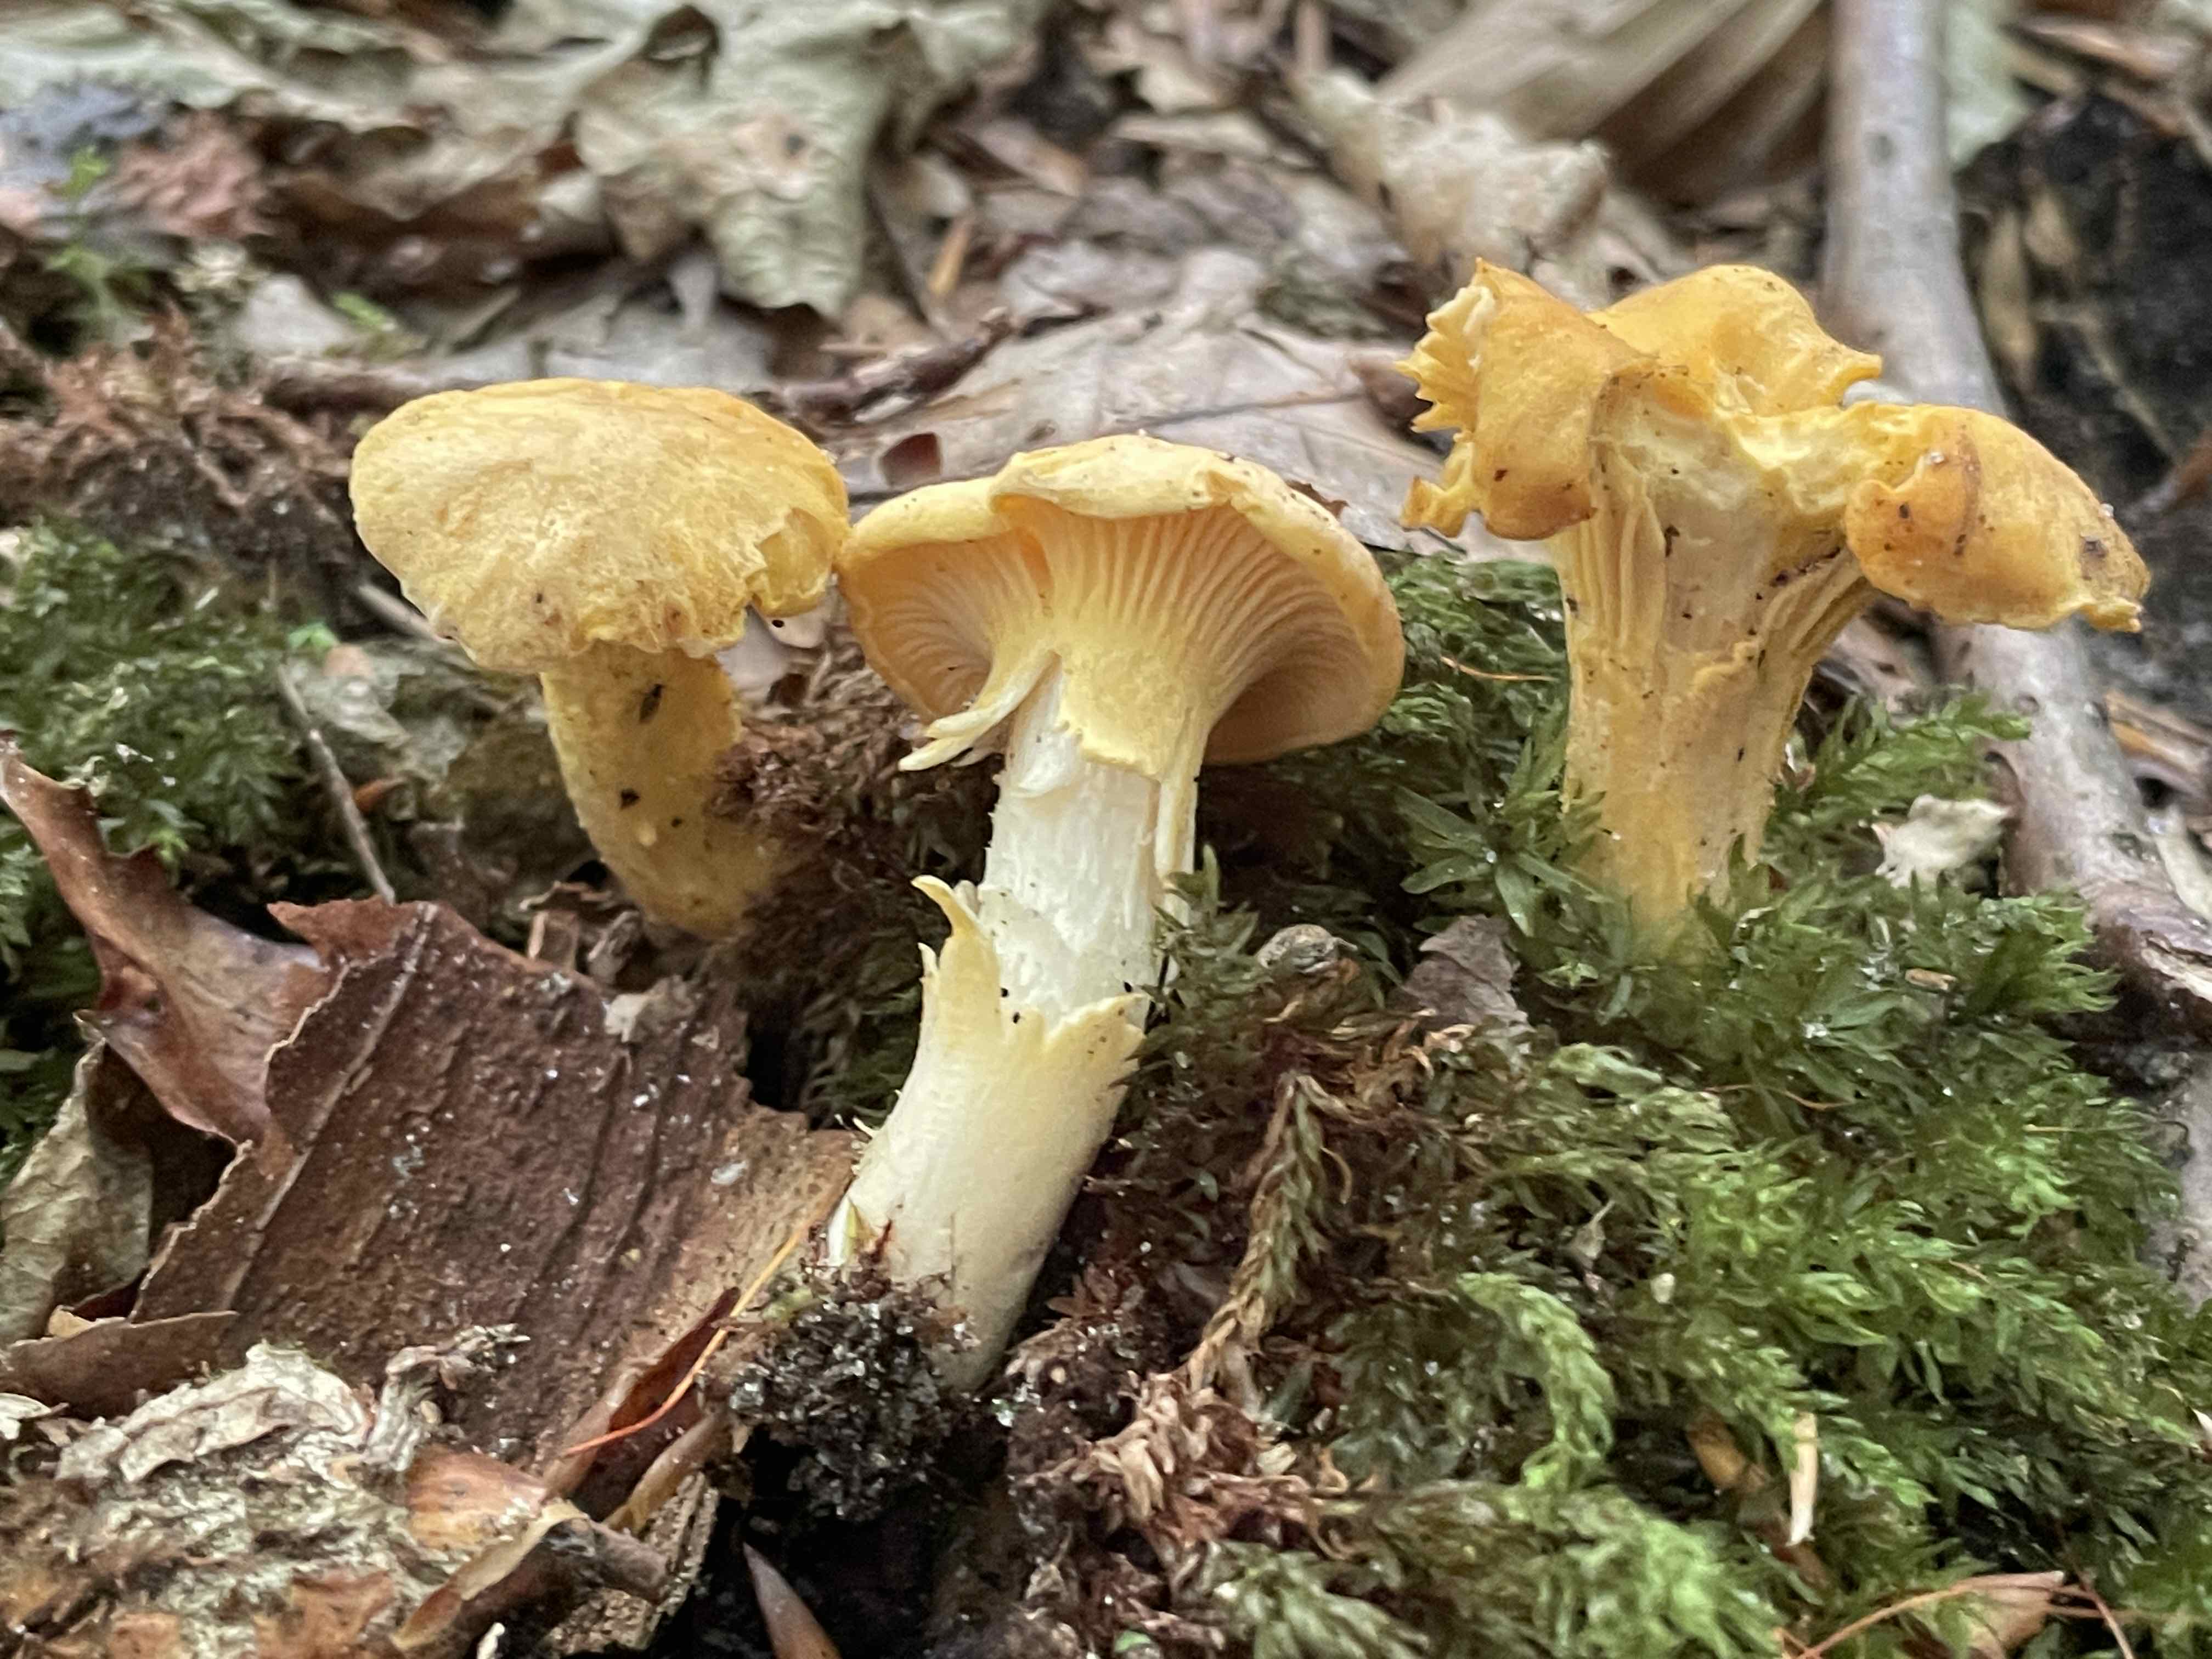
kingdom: Fungi
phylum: Basidiomycota
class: Agaricomycetes
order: Cantharellales
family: Hydnaceae
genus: Cantharellus
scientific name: Cantharellus pallens
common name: bleg kantarel
